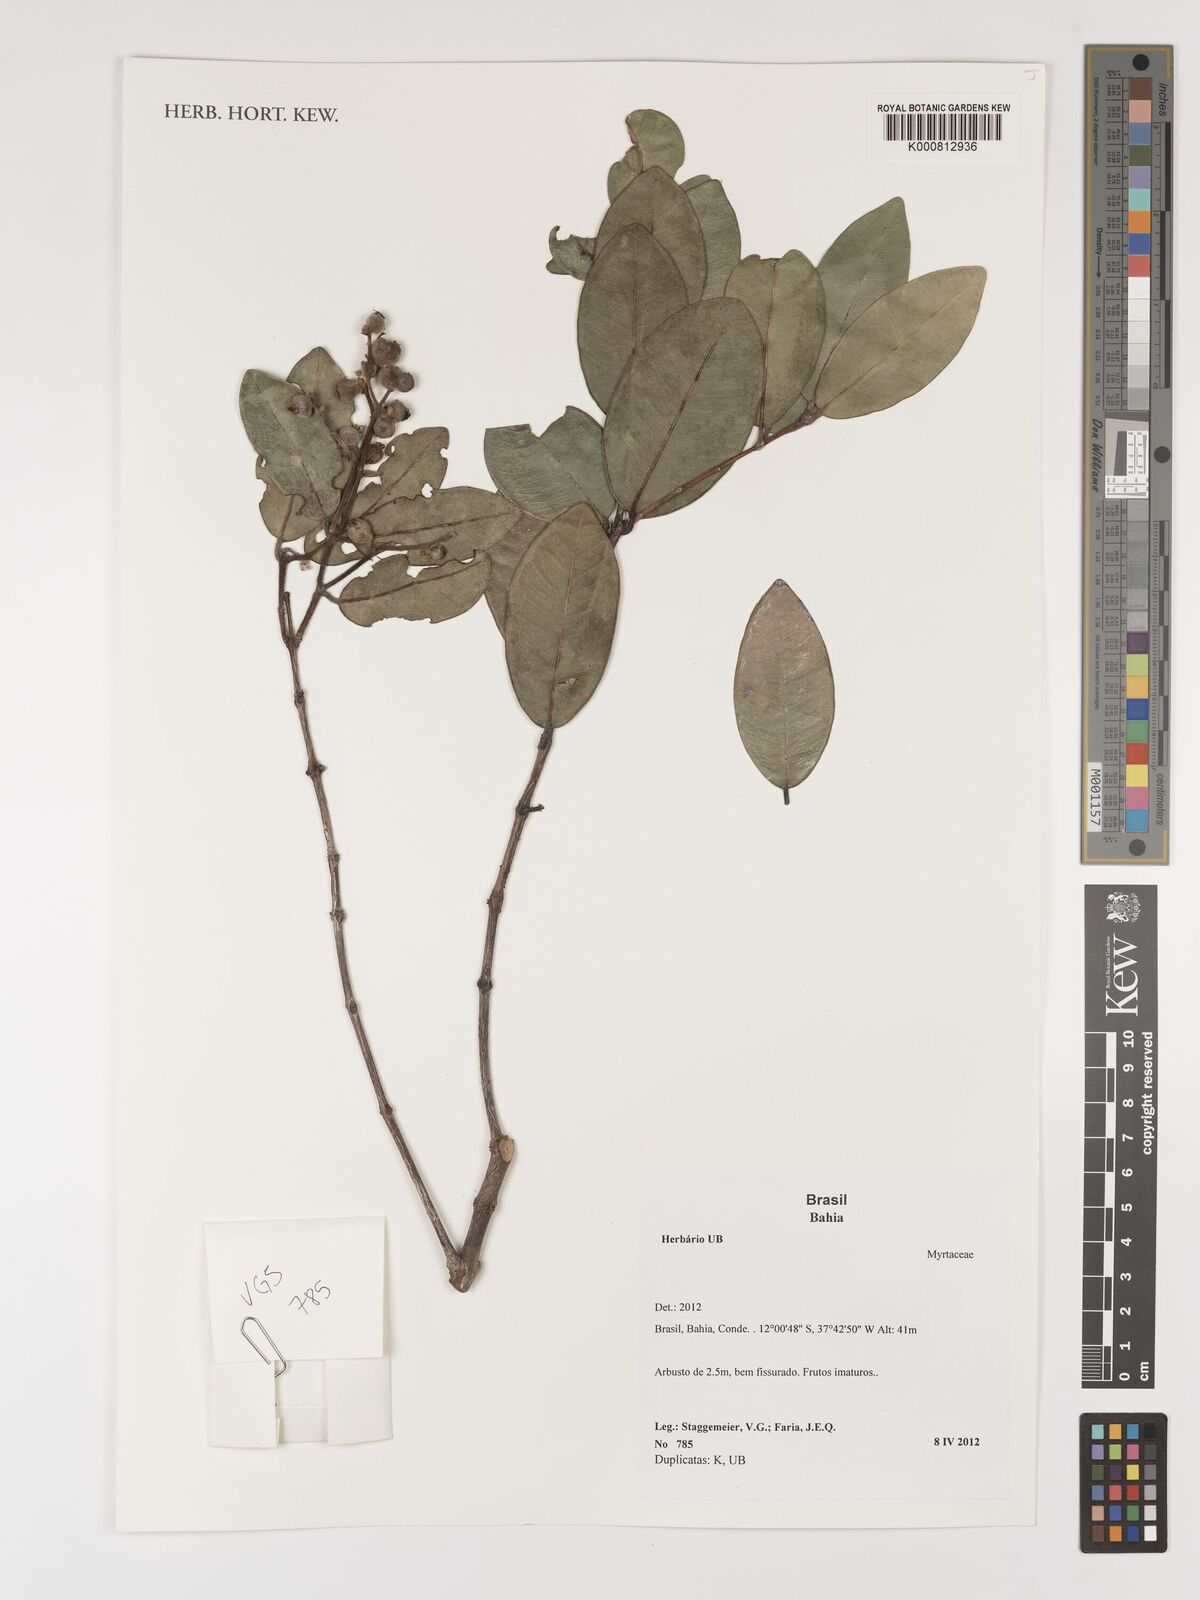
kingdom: Plantae
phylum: Tracheophyta
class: Magnoliopsida
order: Myrtales
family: Myrtaceae
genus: Myrcia
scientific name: Myrcia tomentosa
